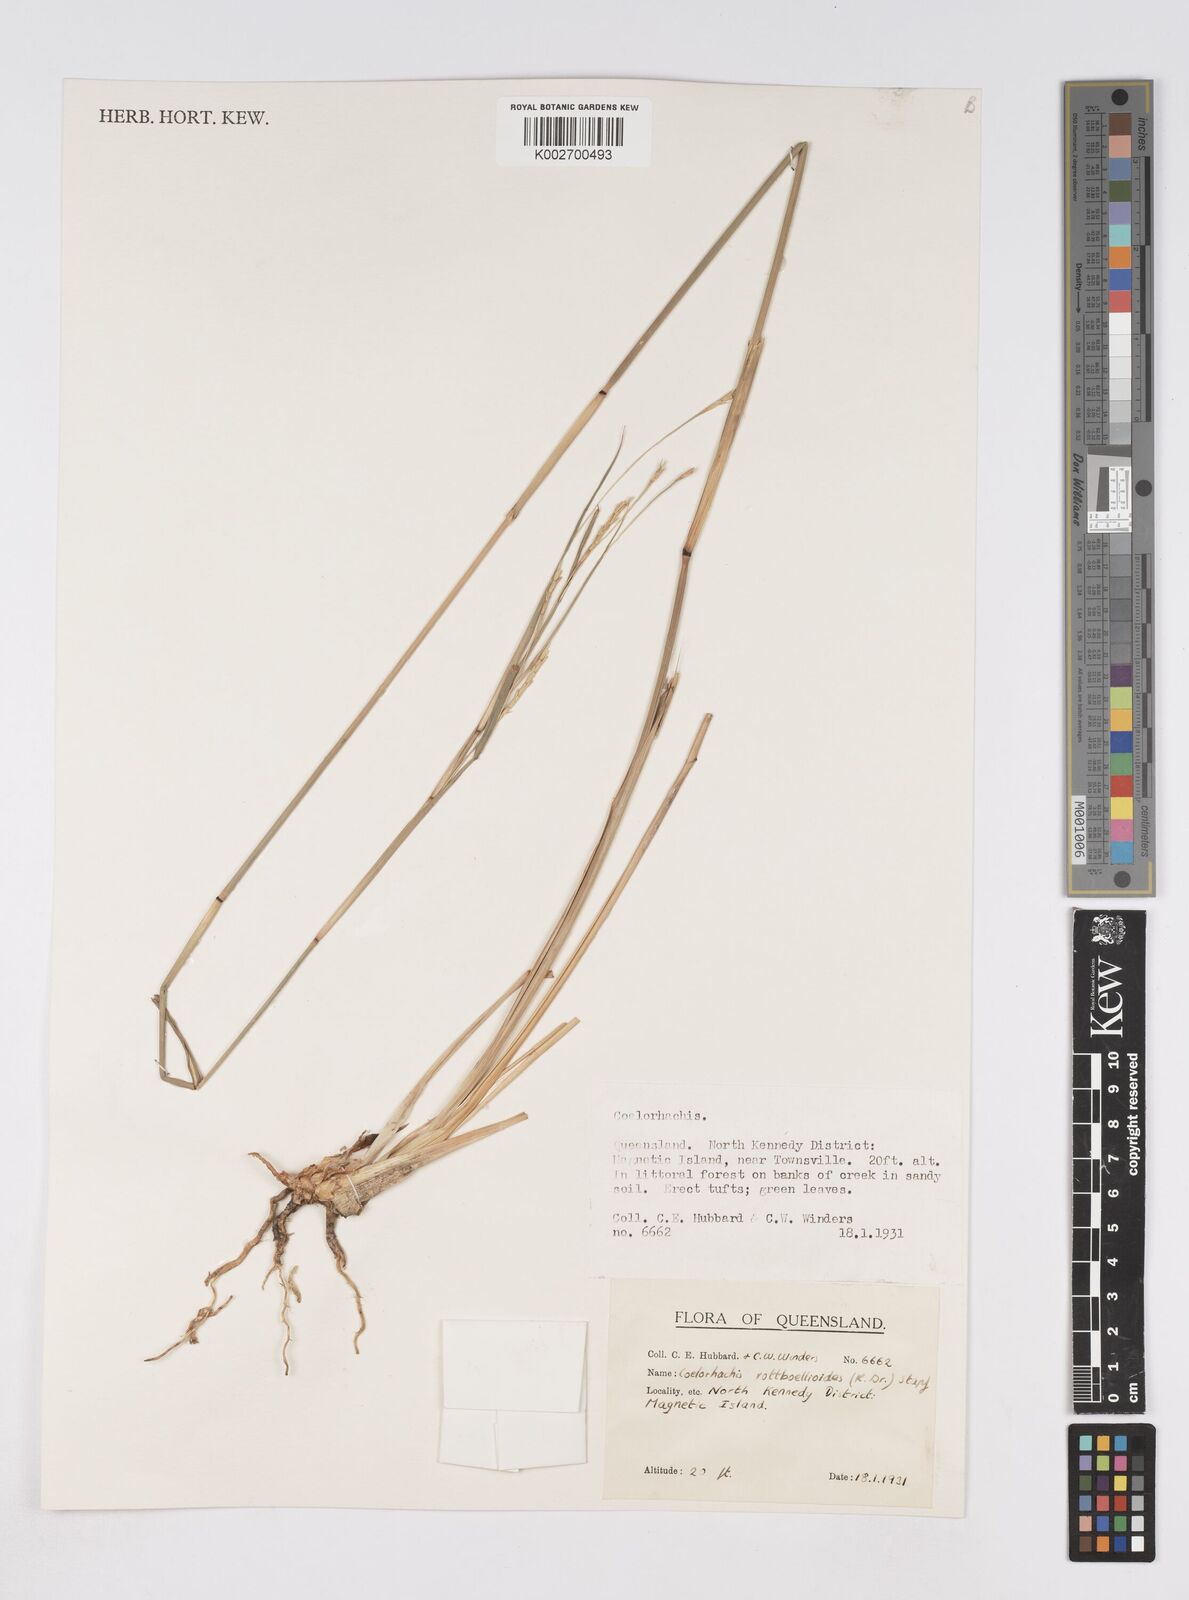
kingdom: Plantae
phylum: Tracheophyta
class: Liliopsida
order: Poales
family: Poaceae
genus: Rottboellia
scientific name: Rottboellia rottboellioides
